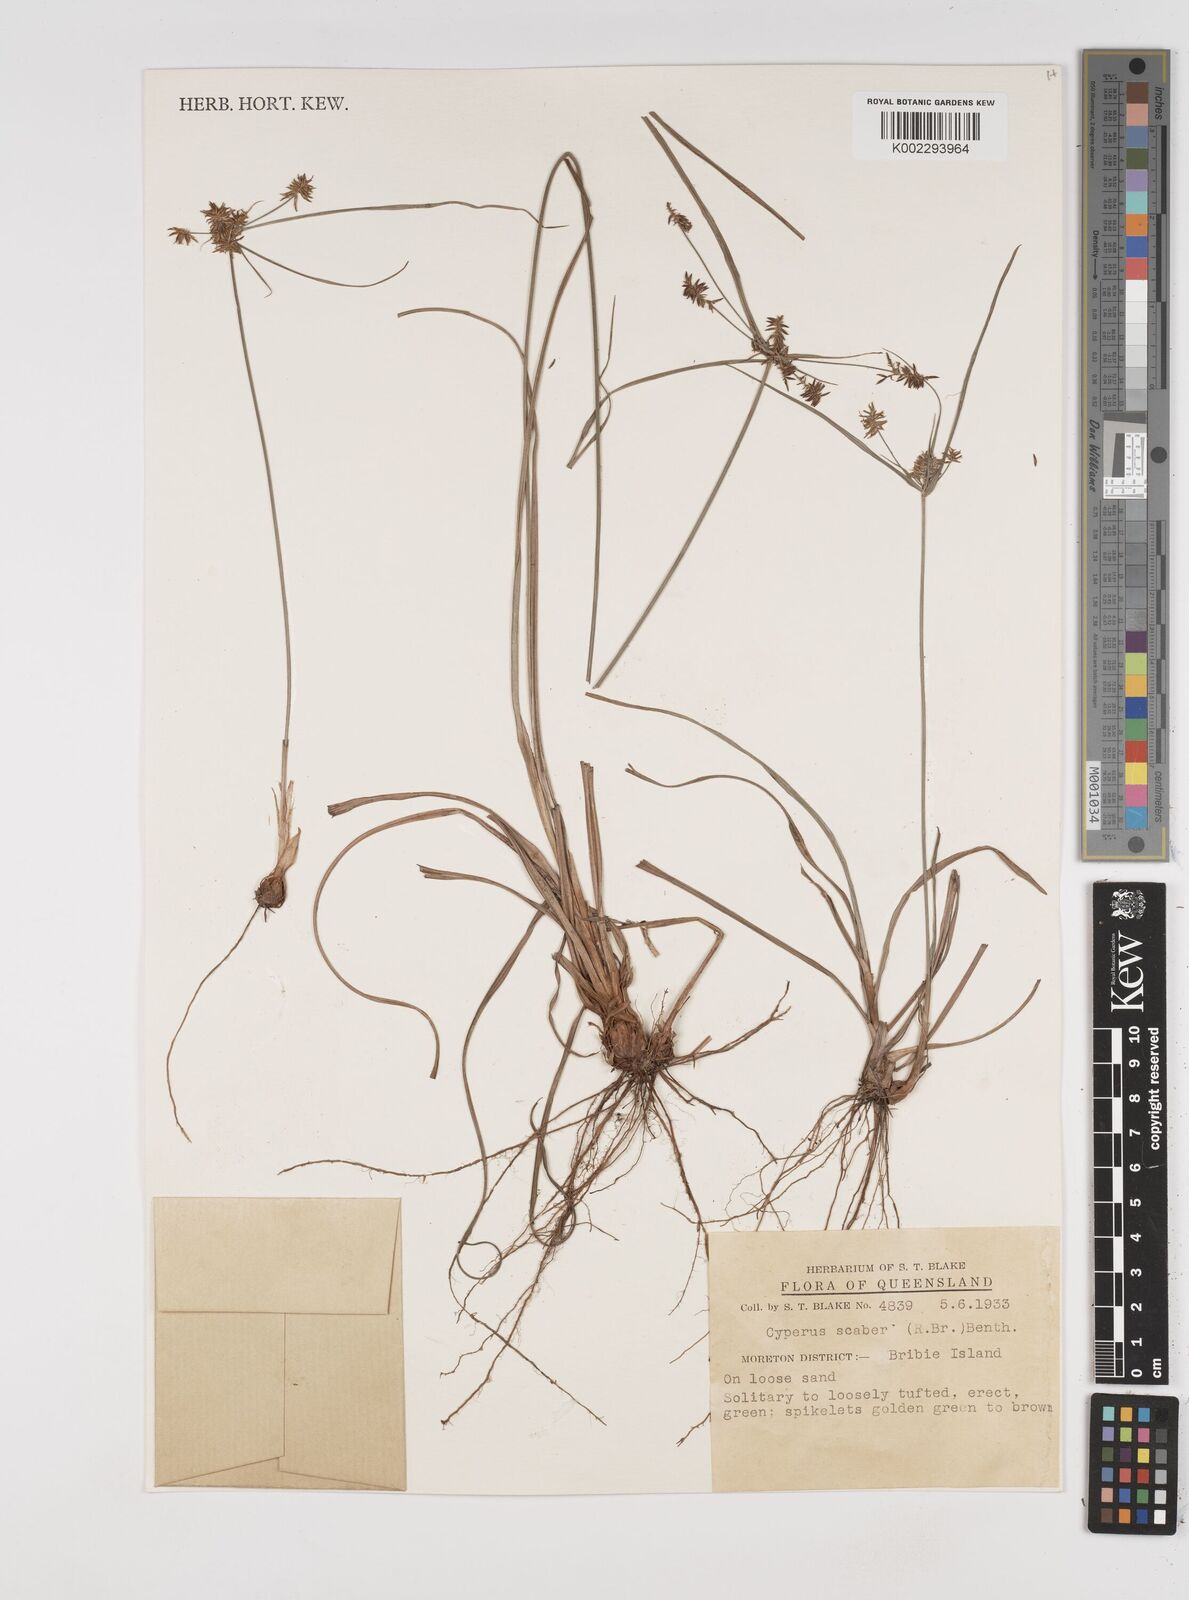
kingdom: Plantae
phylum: Tracheophyta
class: Liliopsida
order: Poales
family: Cyperaceae
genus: Cyperus
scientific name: Cyperus scaber
